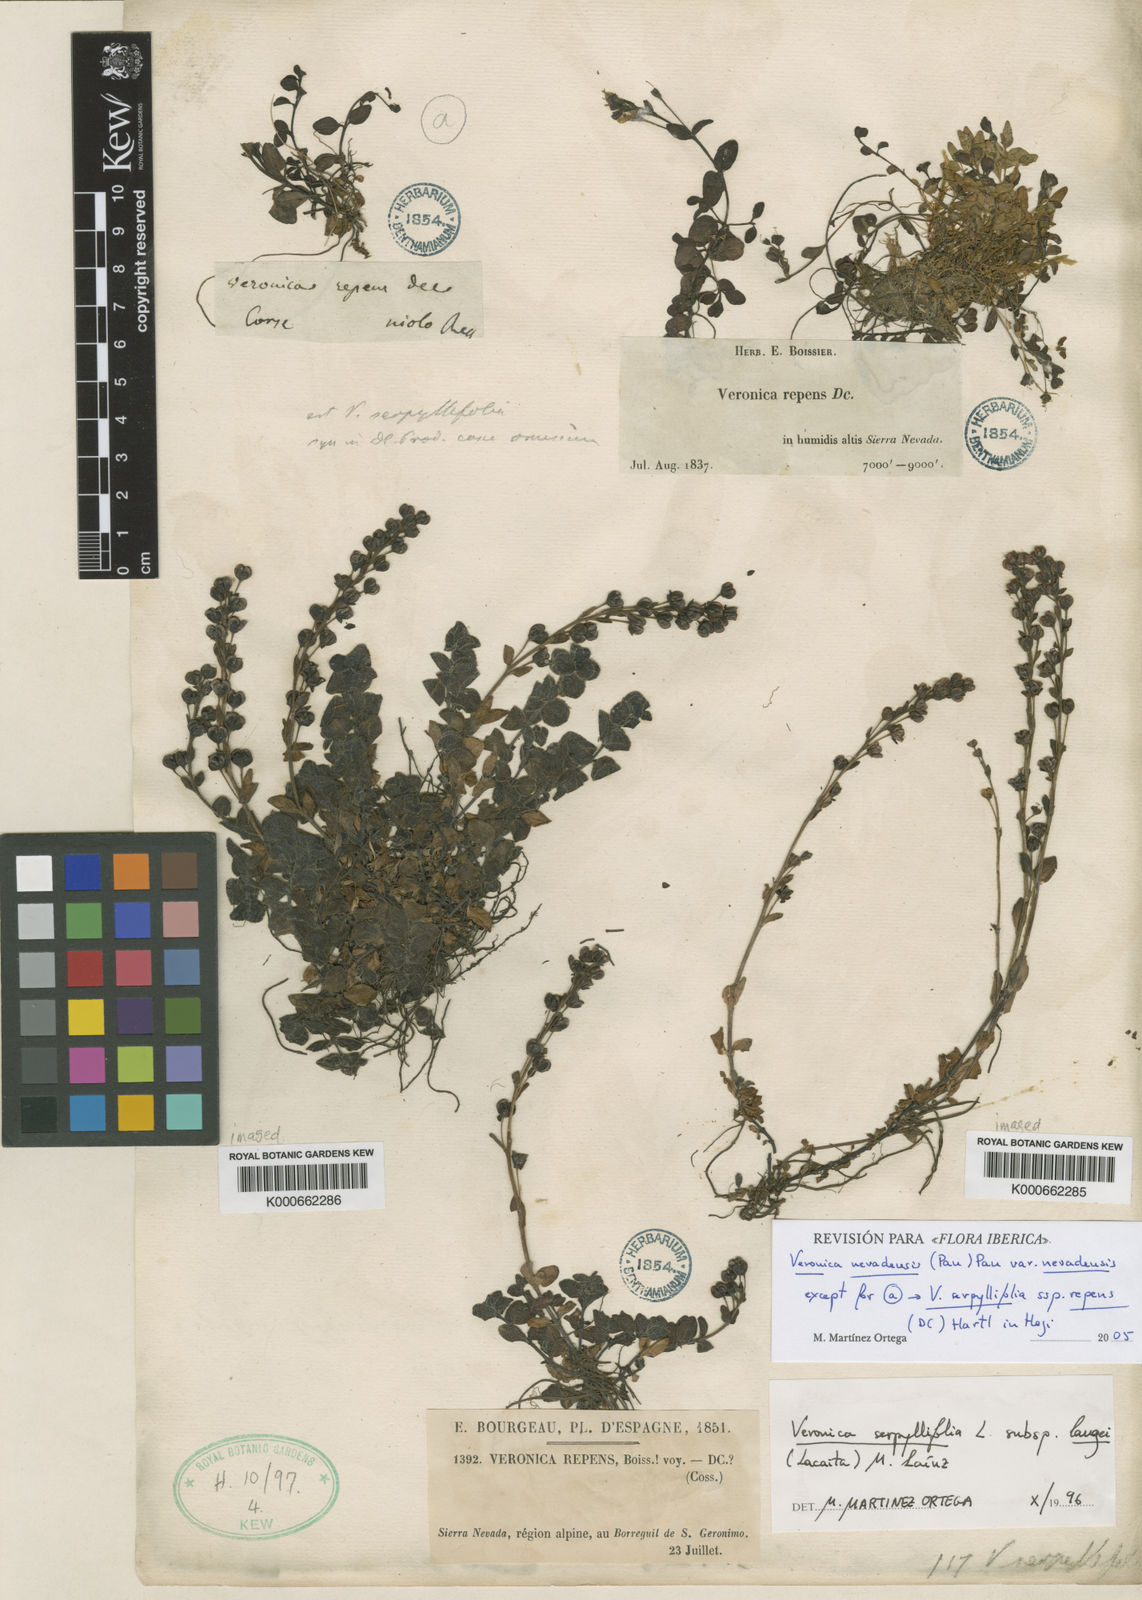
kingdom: Plantae
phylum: Tracheophyta
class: Magnoliopsida
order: Lamiales
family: Plantaginaceae
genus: Veronica
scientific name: Veronica nevadensis
